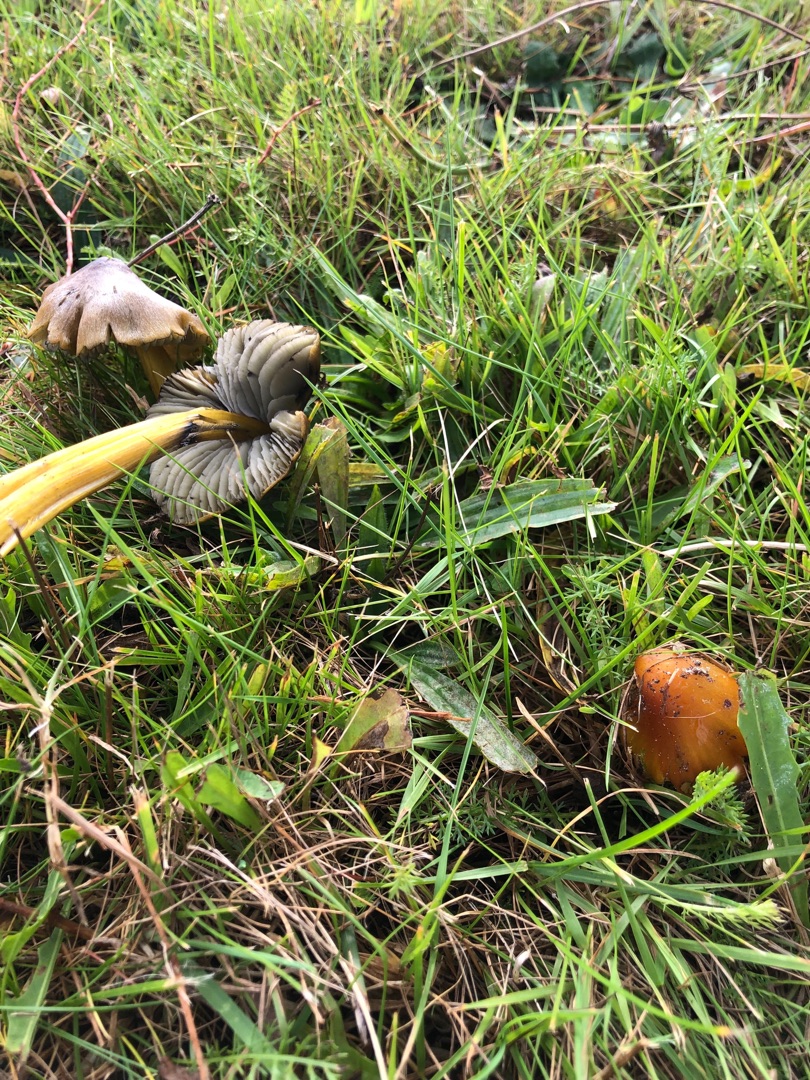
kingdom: Fungi
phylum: Basidiomycota
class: Agaricomycetes
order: Agaricales
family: Hygrophoraceae
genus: Hygrocybe
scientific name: Hygrocybe conica
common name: Kegle-vokshat
